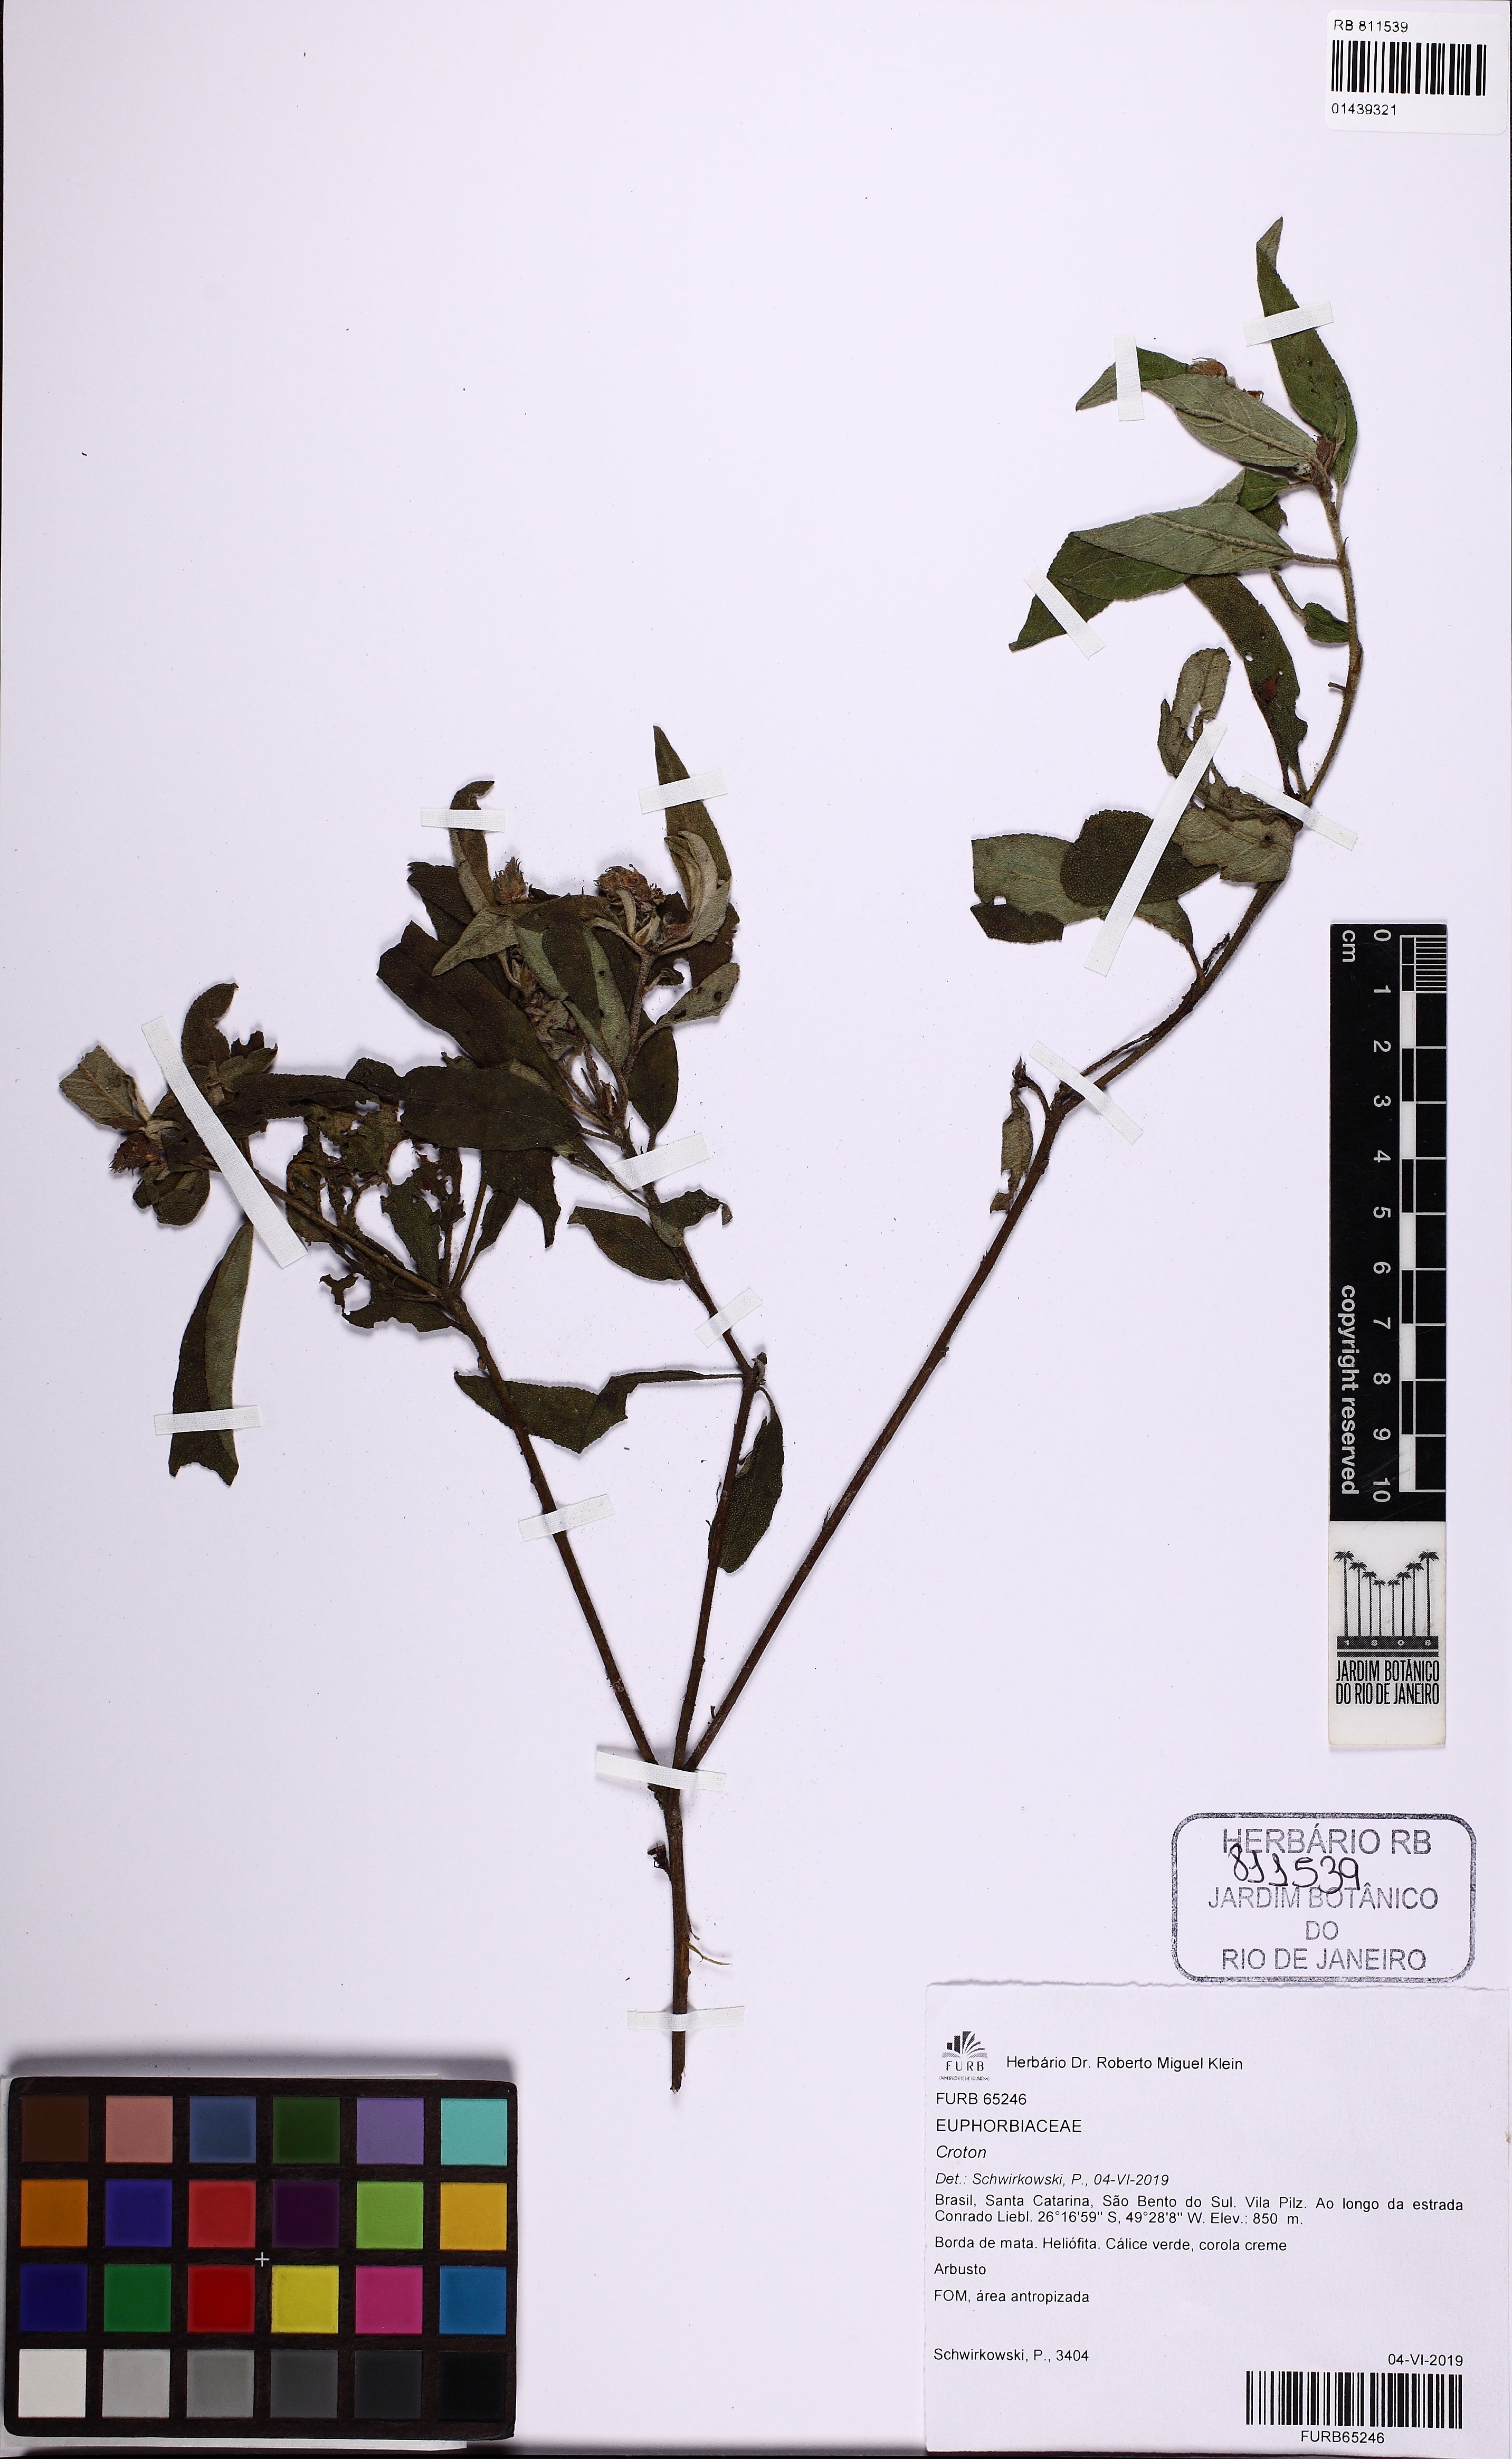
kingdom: Plantae
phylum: Tracheophyta
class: Magnoliopsida
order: Malpighiales
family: Euphorbiaceae
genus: Croton
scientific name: Croton
